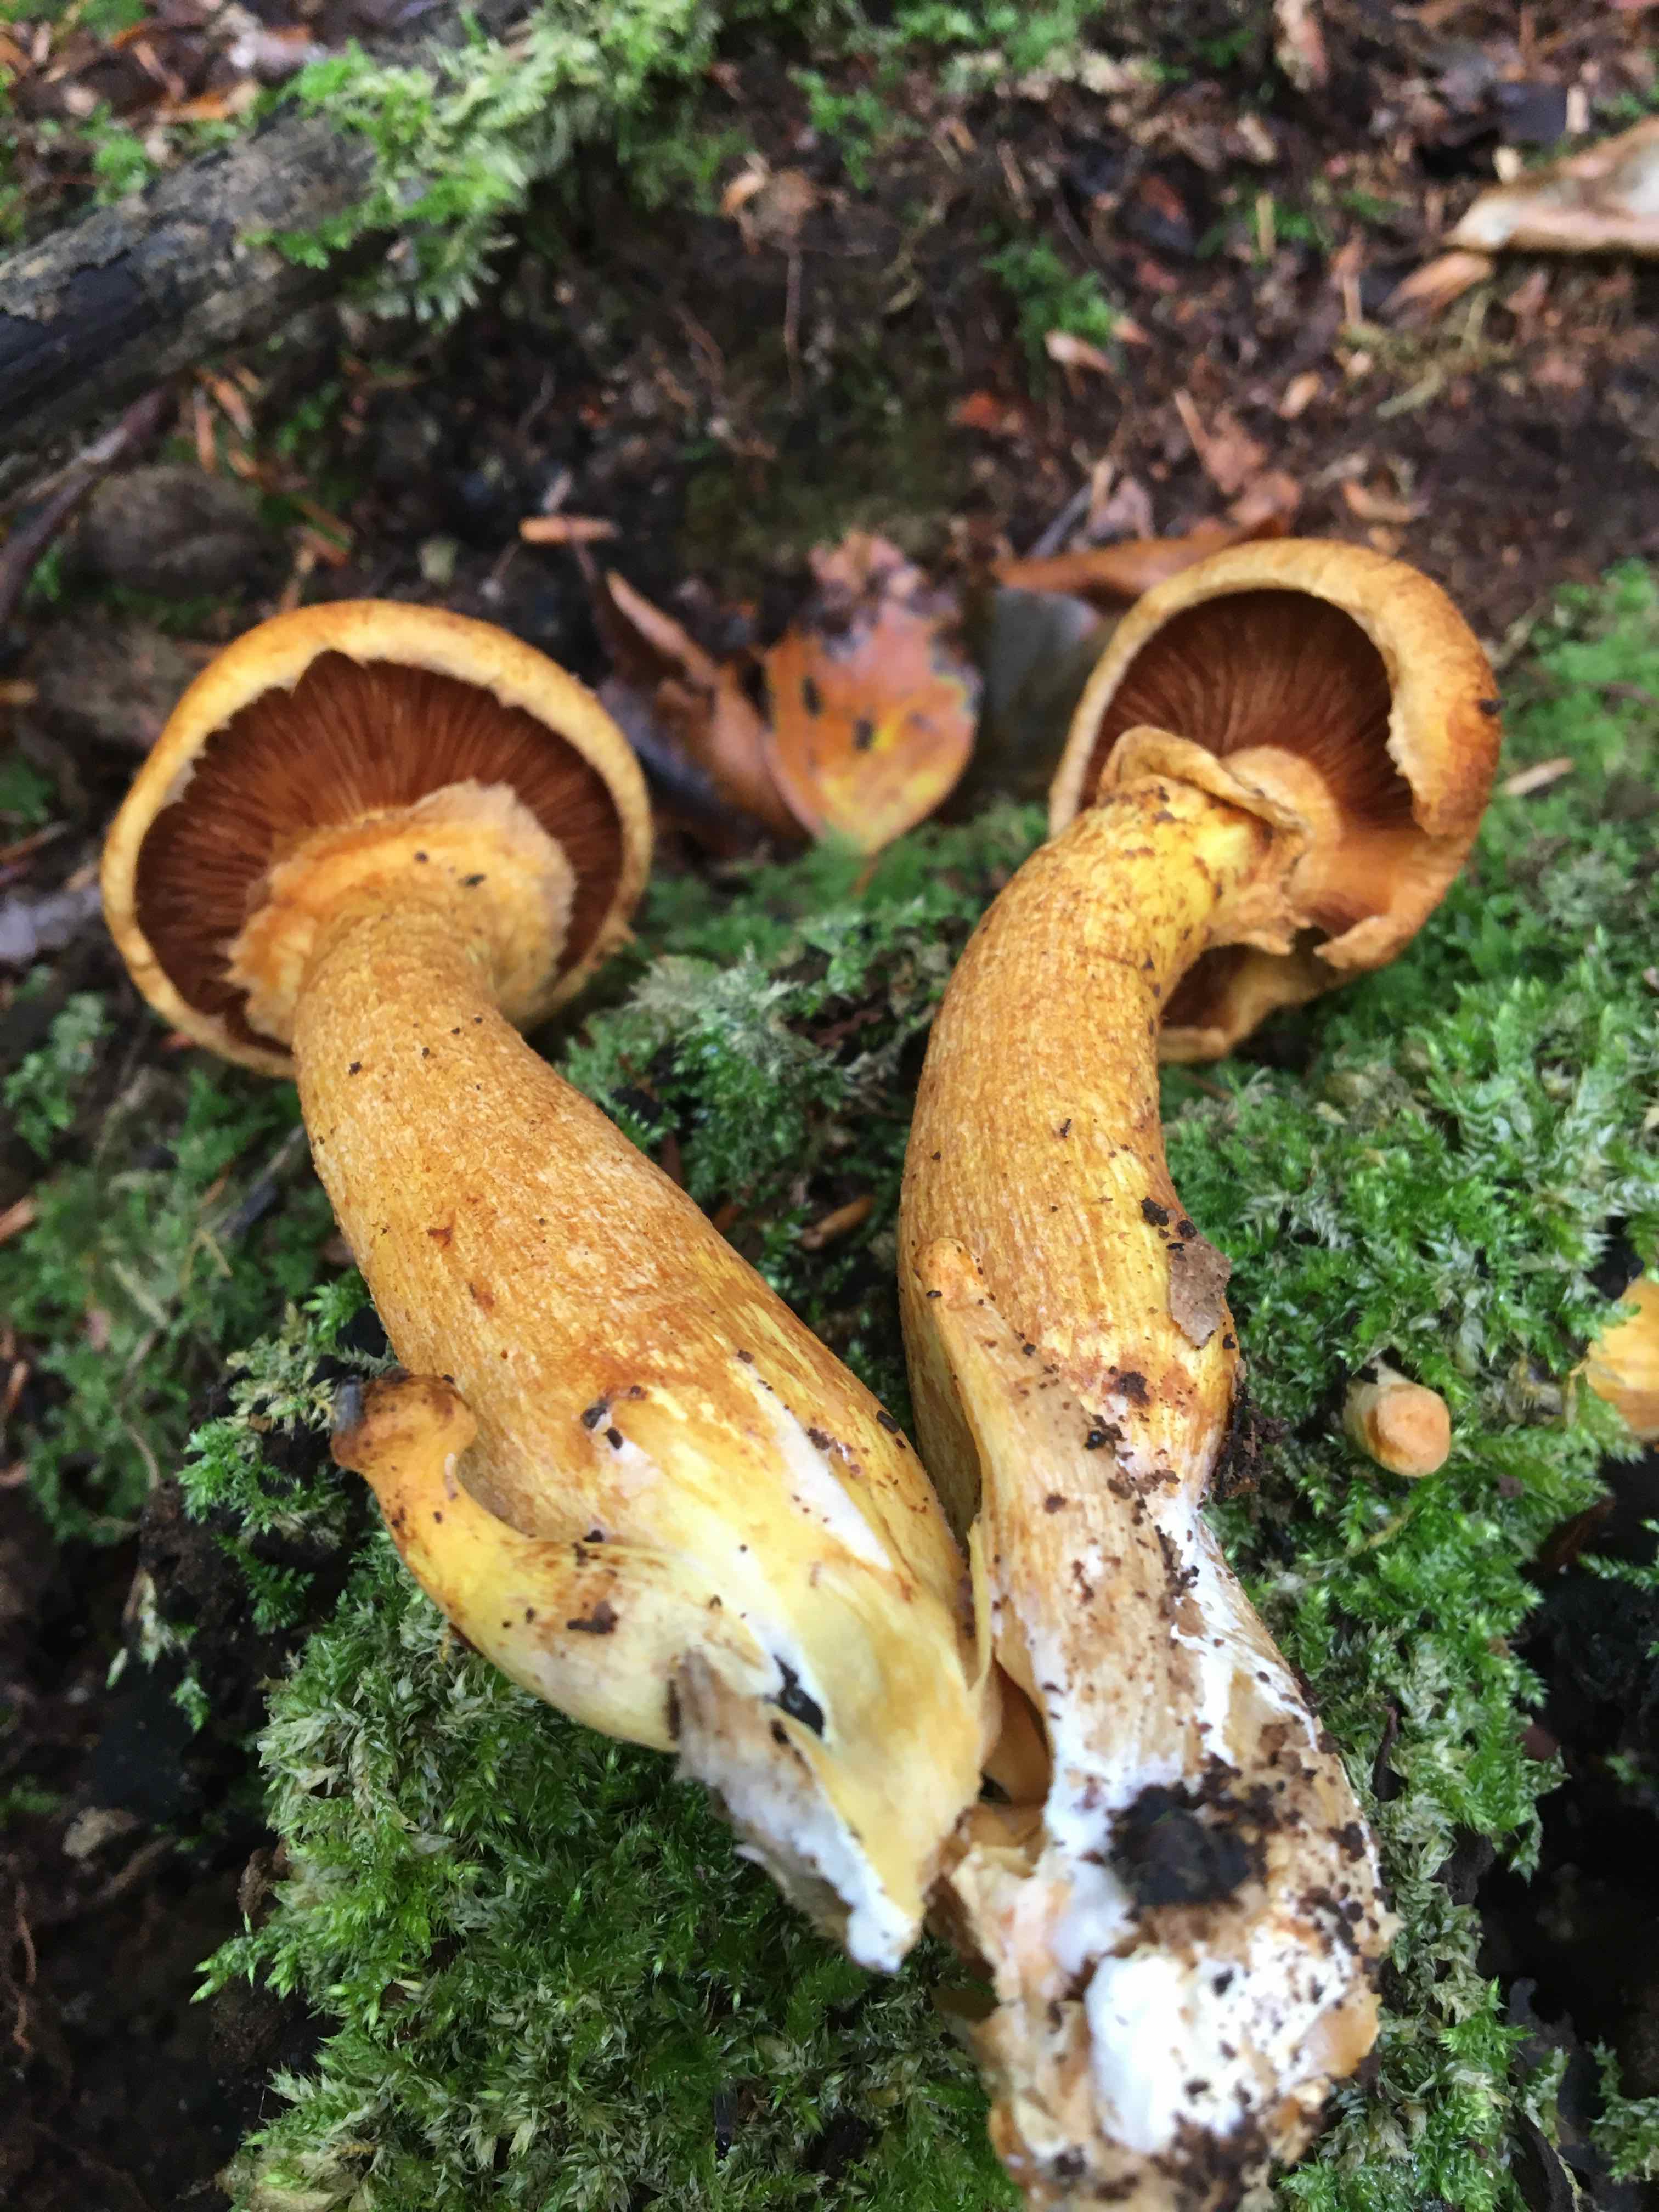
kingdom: Fungi
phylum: Basidiomycota
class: Agaricomycetes
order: Agaricales
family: Hymenogastraceae
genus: Gymnopilus
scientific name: Gymnopilus spectabilis
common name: fibret flammehat
